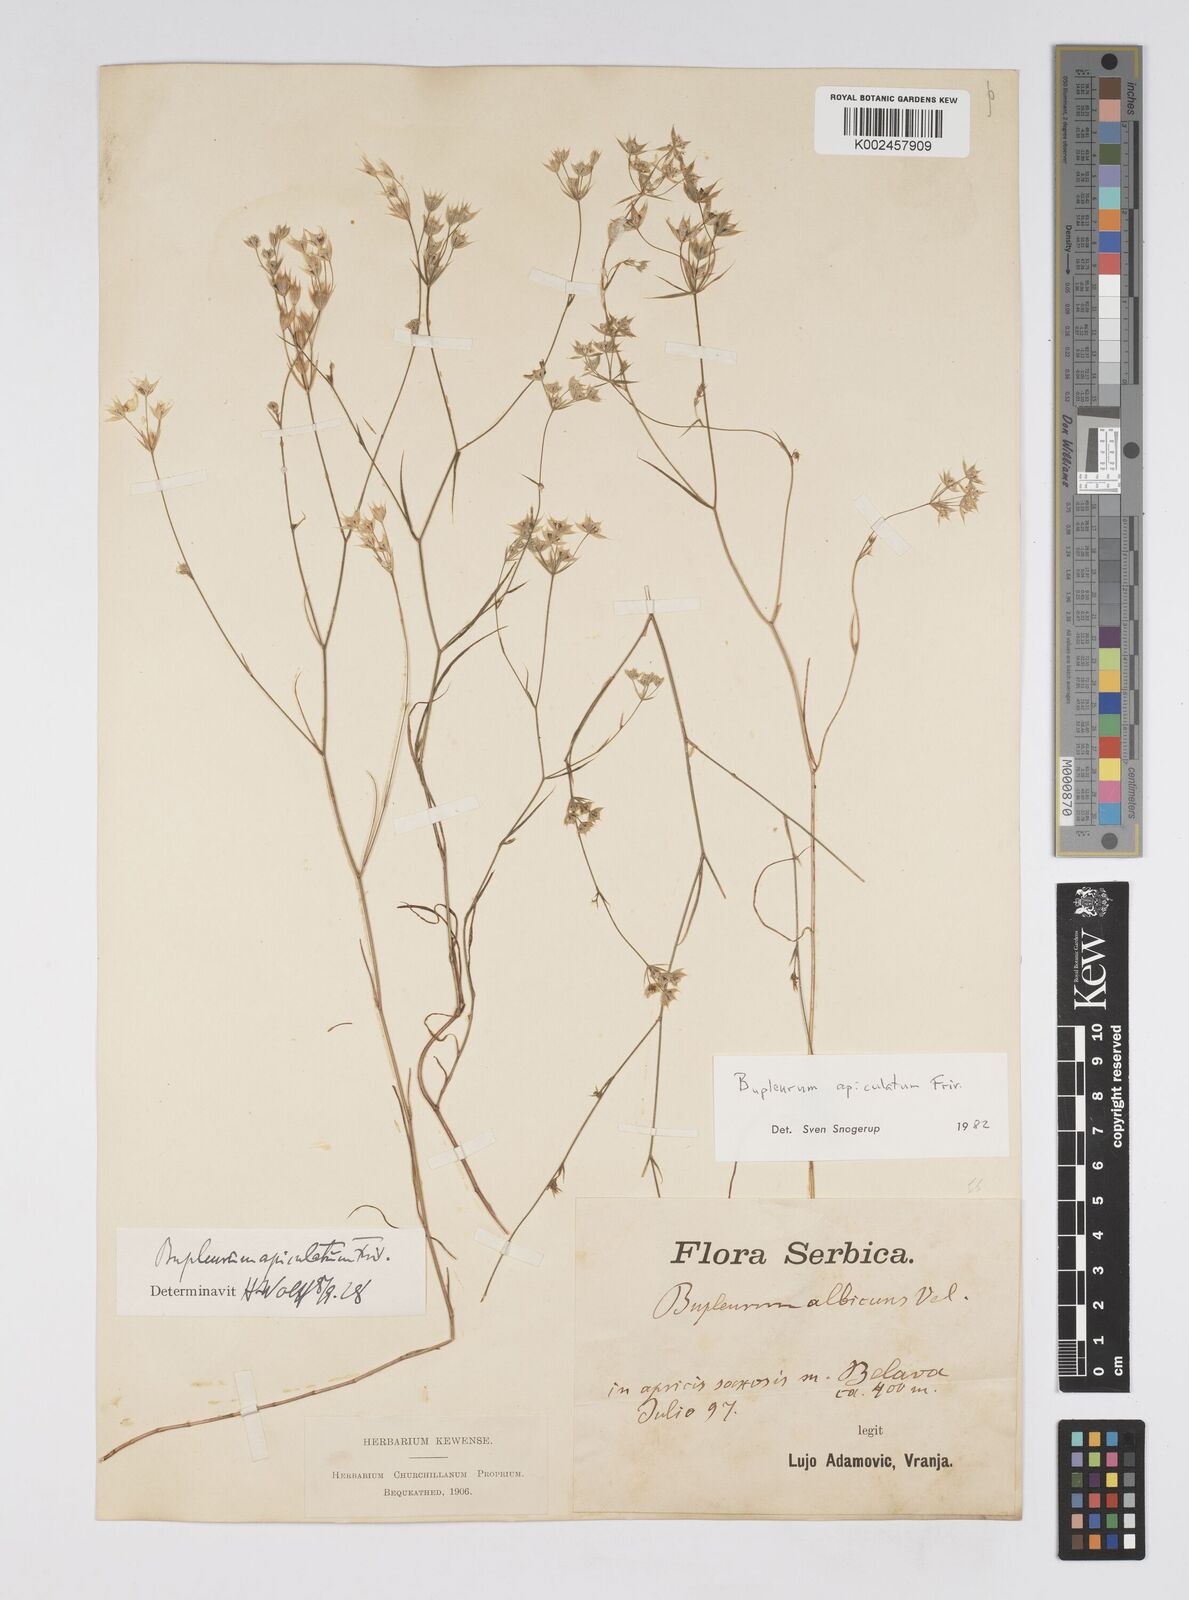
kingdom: Plantae
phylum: Tracheophyta
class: Magnoliopsida
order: Apiales
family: Apiaceae
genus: Bupleurum
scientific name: Bupleurum apiculatum
